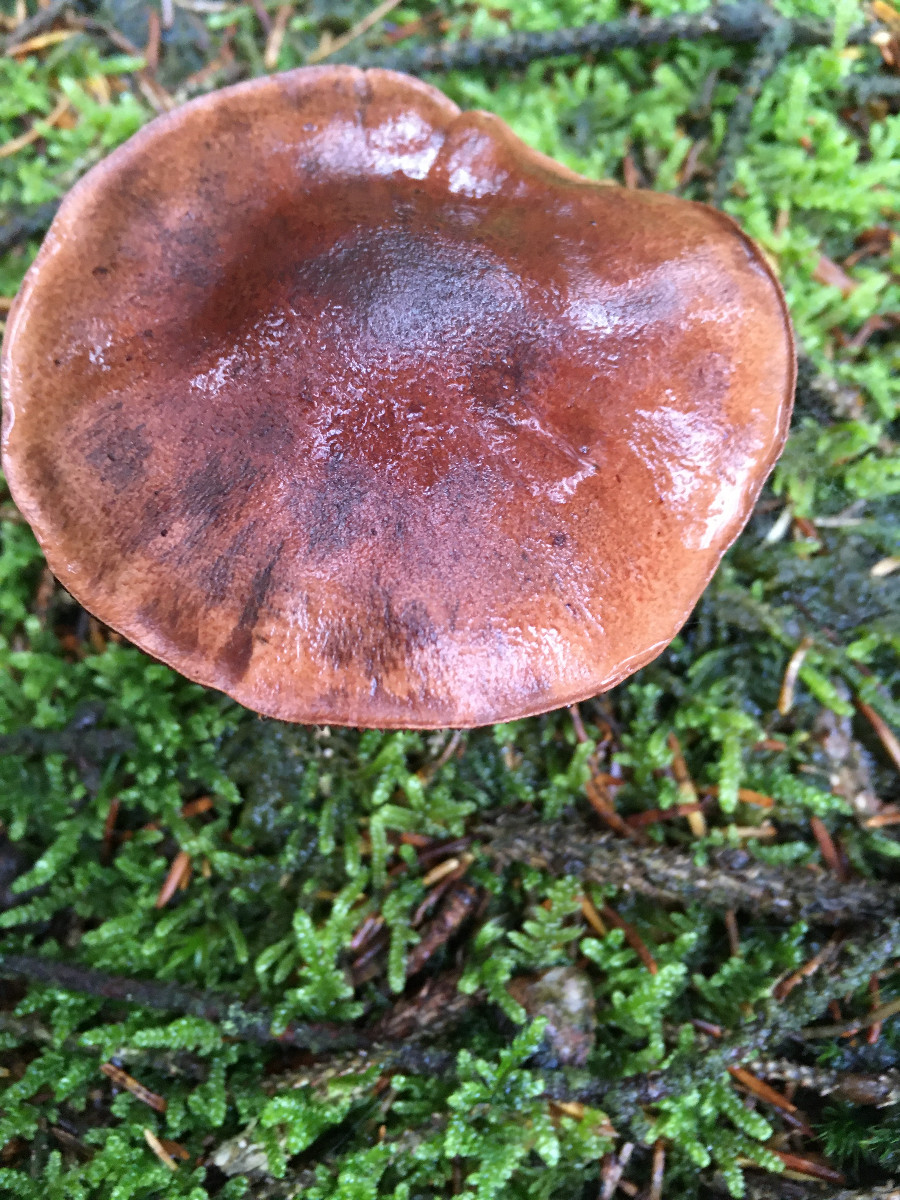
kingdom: Fungi
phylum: Basidiomycota
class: Agaricomycetes
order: Agaricales
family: Tricholomataceae
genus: Tricholoma
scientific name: Tricholoma fulvum
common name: birke-ridderhat
